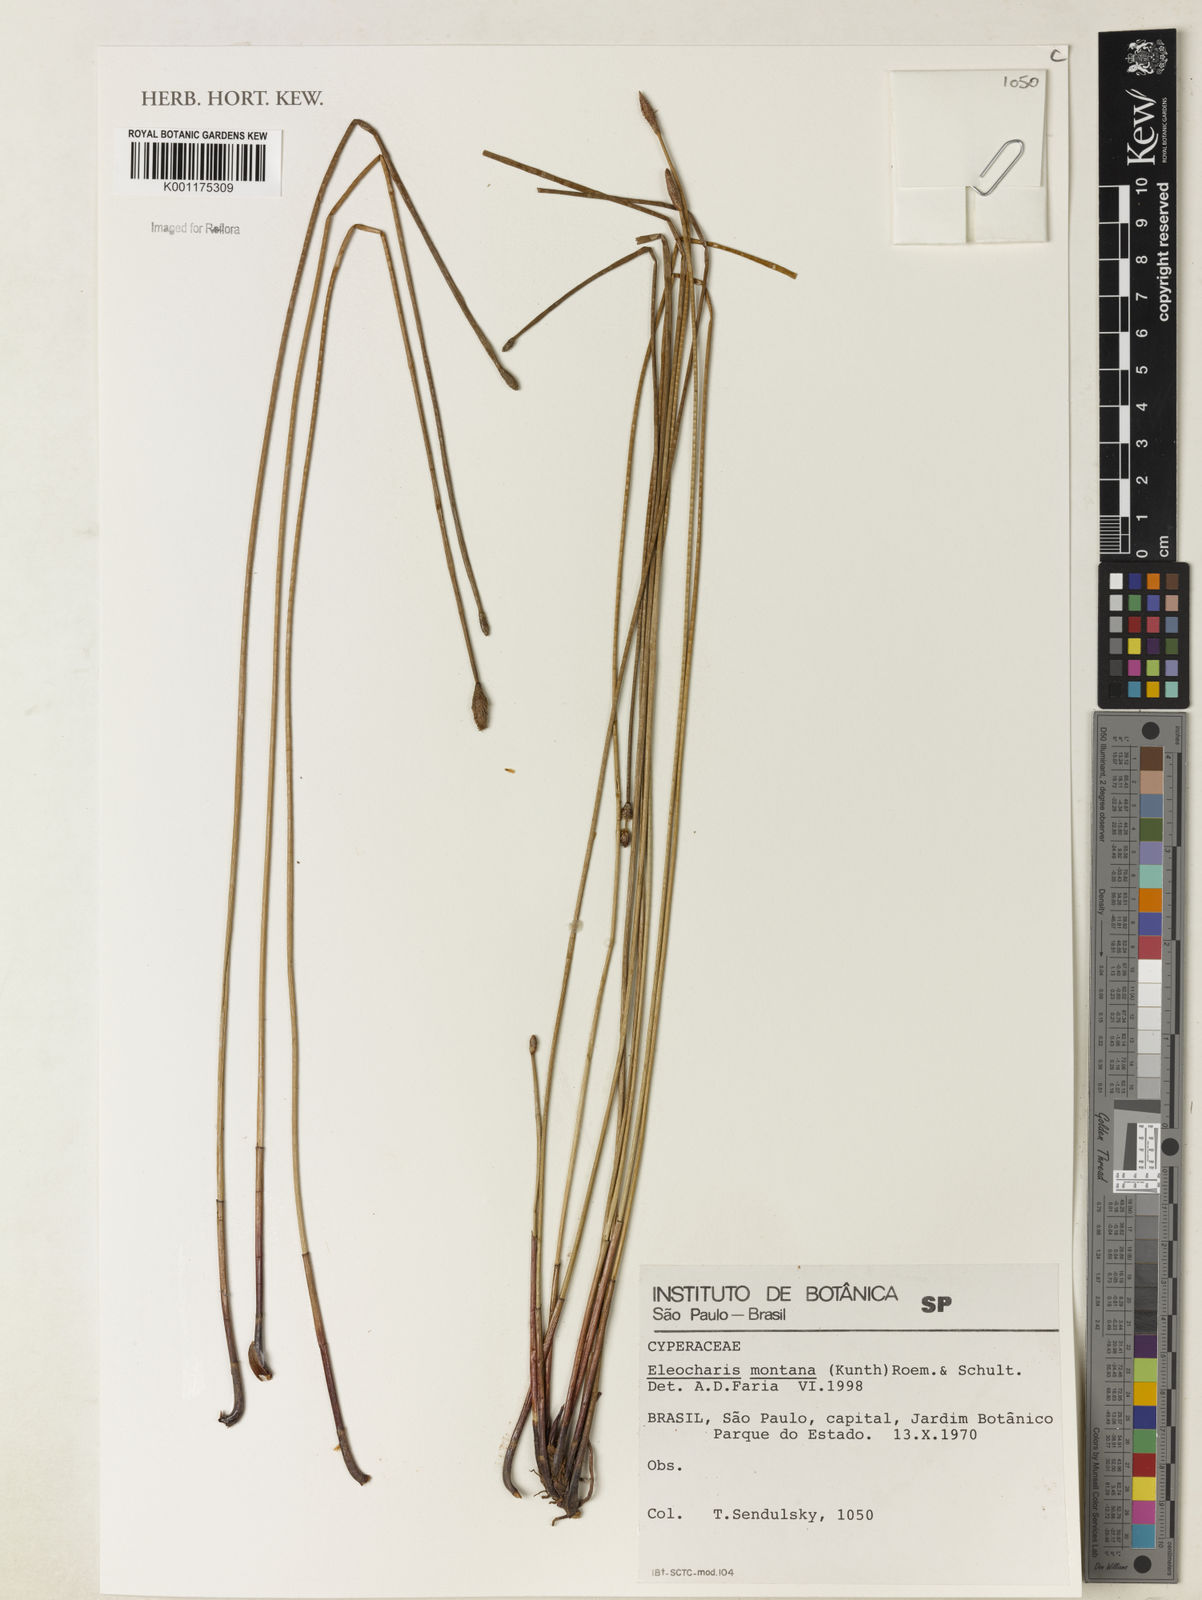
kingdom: Plantae
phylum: Tracheophyta
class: Liliopsida
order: Poales
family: Cyperaceae
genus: Eleocharis
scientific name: Eleocharis montana
